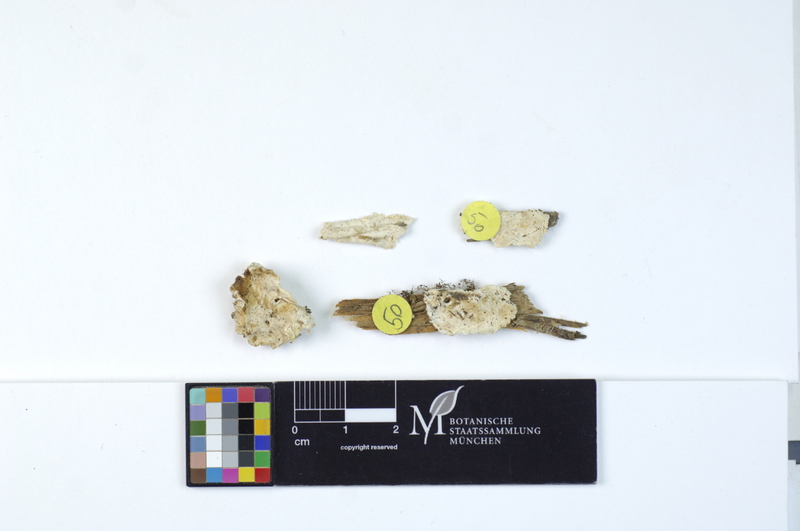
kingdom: Plantae
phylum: Tracheophyta
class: Pinopsida
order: Pinales
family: Pinaceae
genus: Picea
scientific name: Picea
